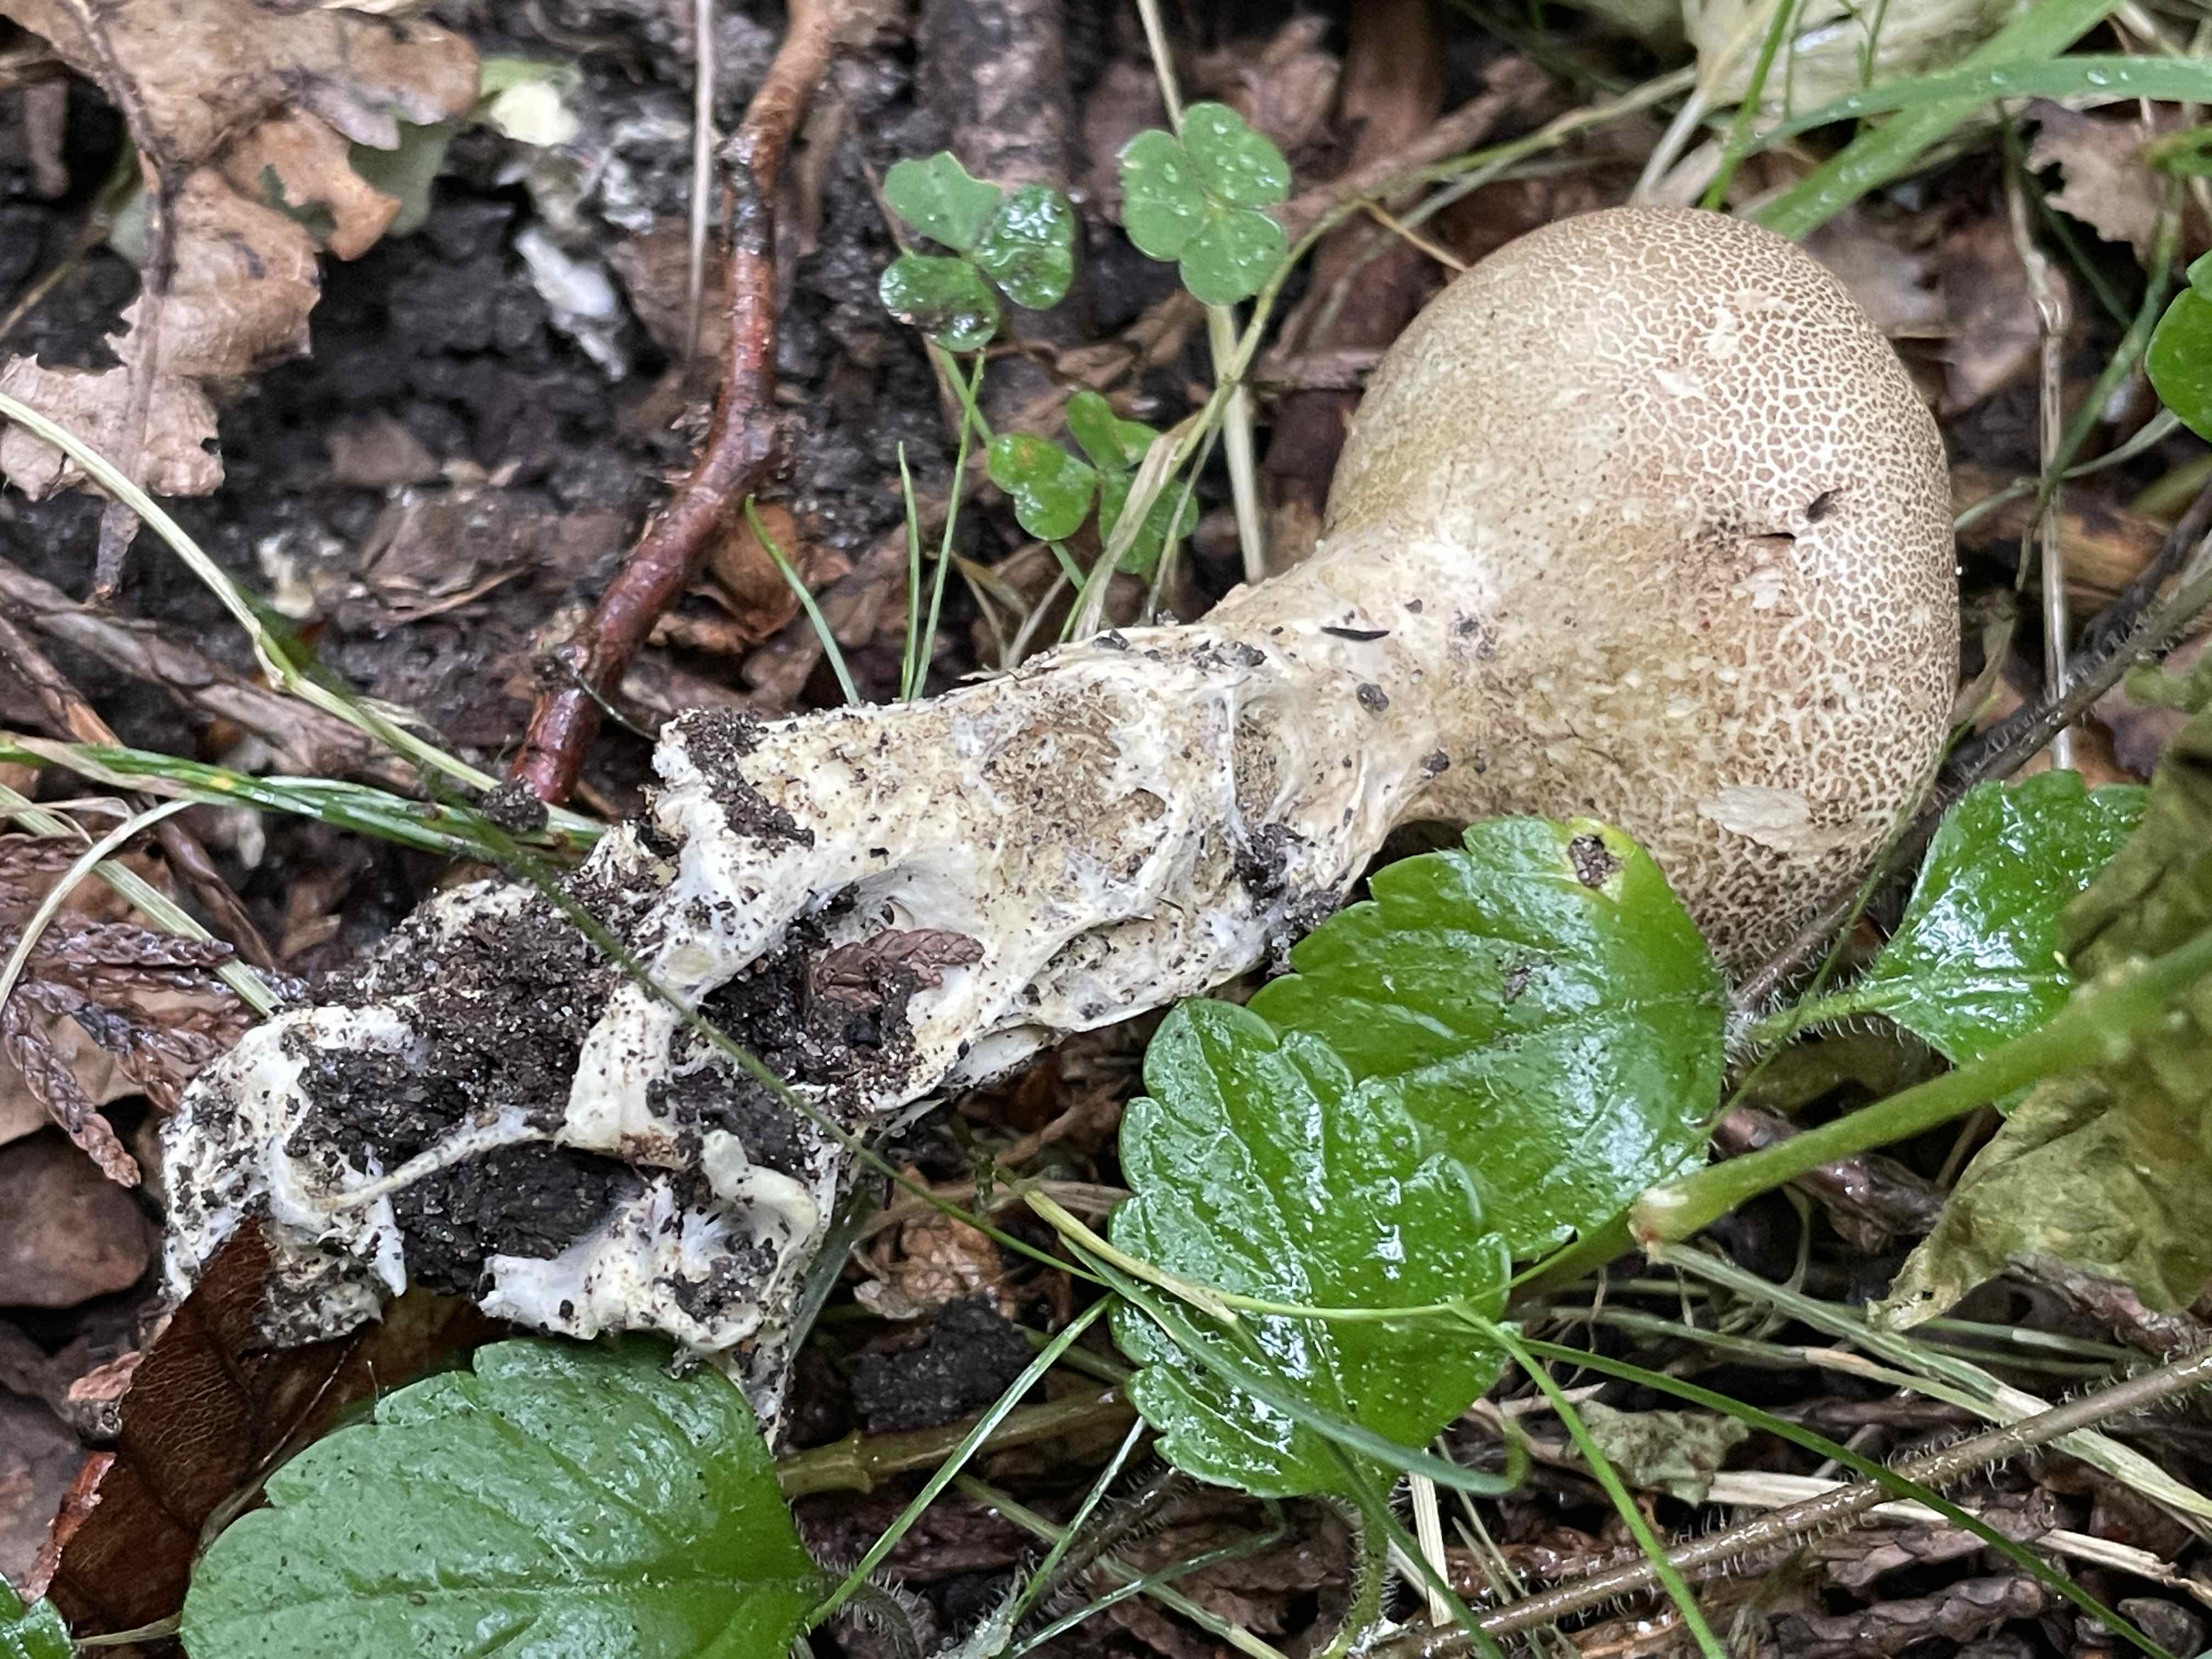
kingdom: Fungi
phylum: Basidiomycota
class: Agaricomycetes
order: Boletales
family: Sclerodermataceae
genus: Scleroderma
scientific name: Scleroderma verrucosum
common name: stilket bruskbold
